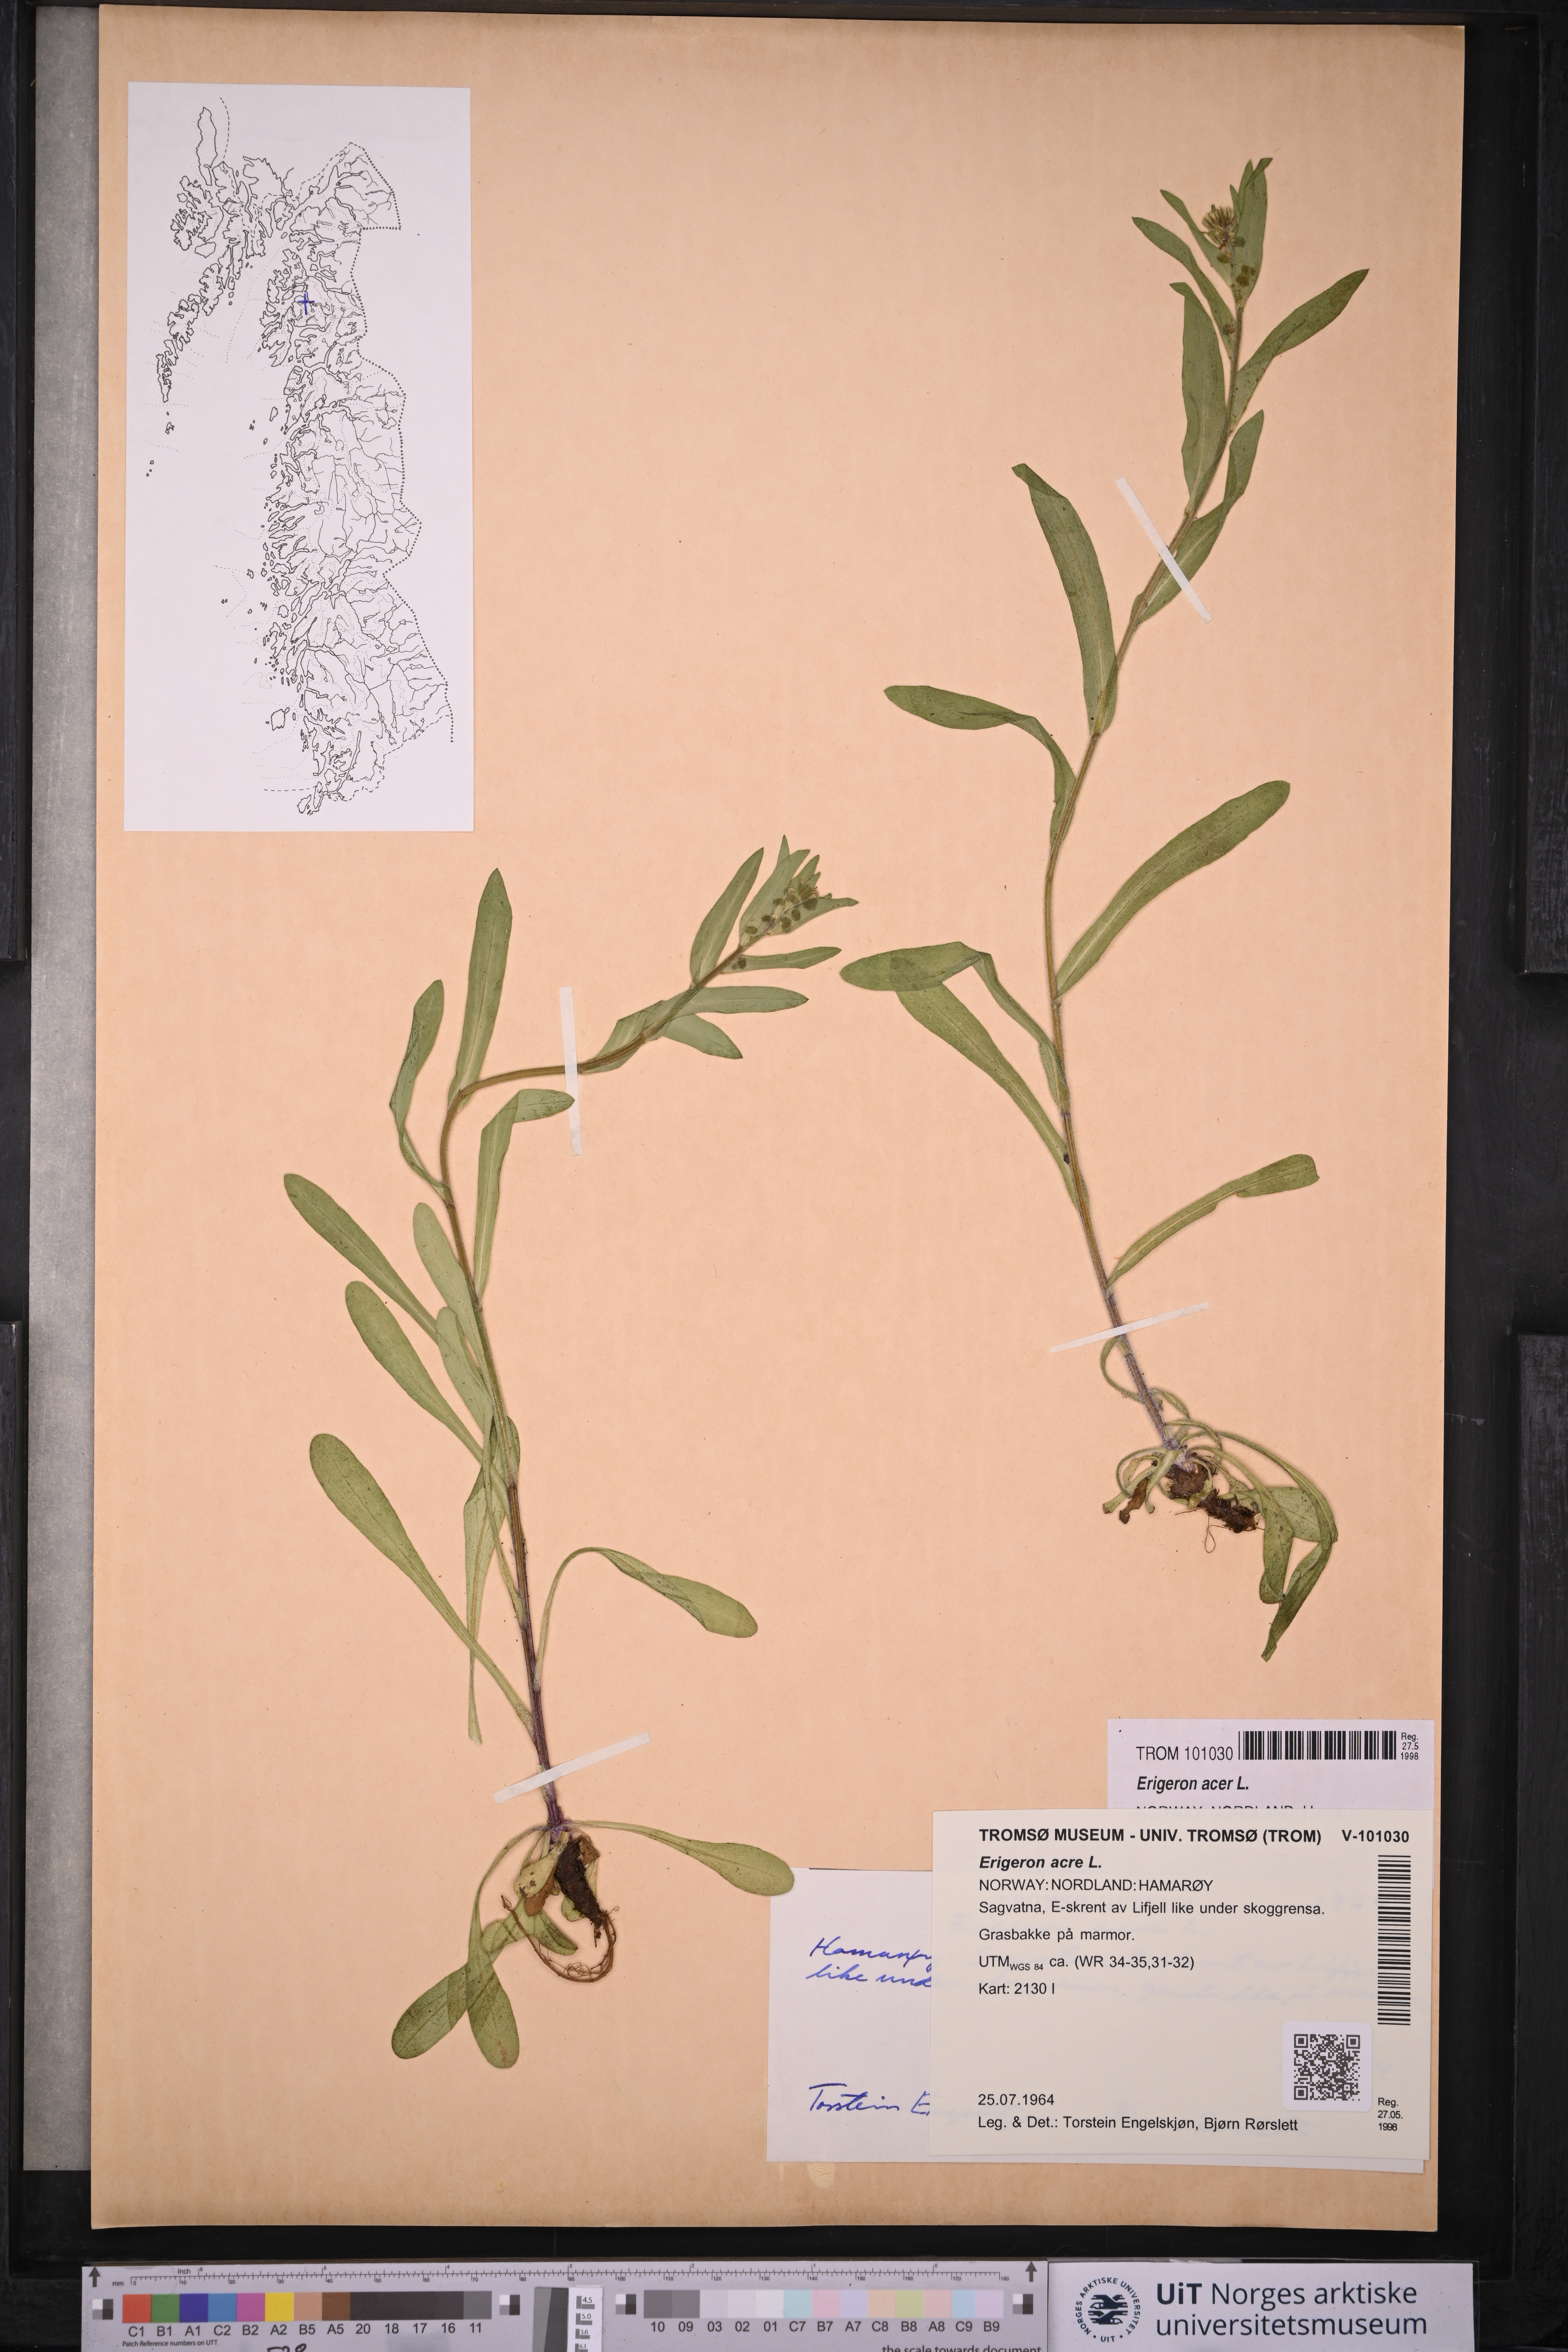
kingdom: Plantae
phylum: Tracheophyta
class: Magnoliopsida
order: Asterales
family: Asteraceae
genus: Erigeron
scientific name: Erigeron acris
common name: Blue fleabane
